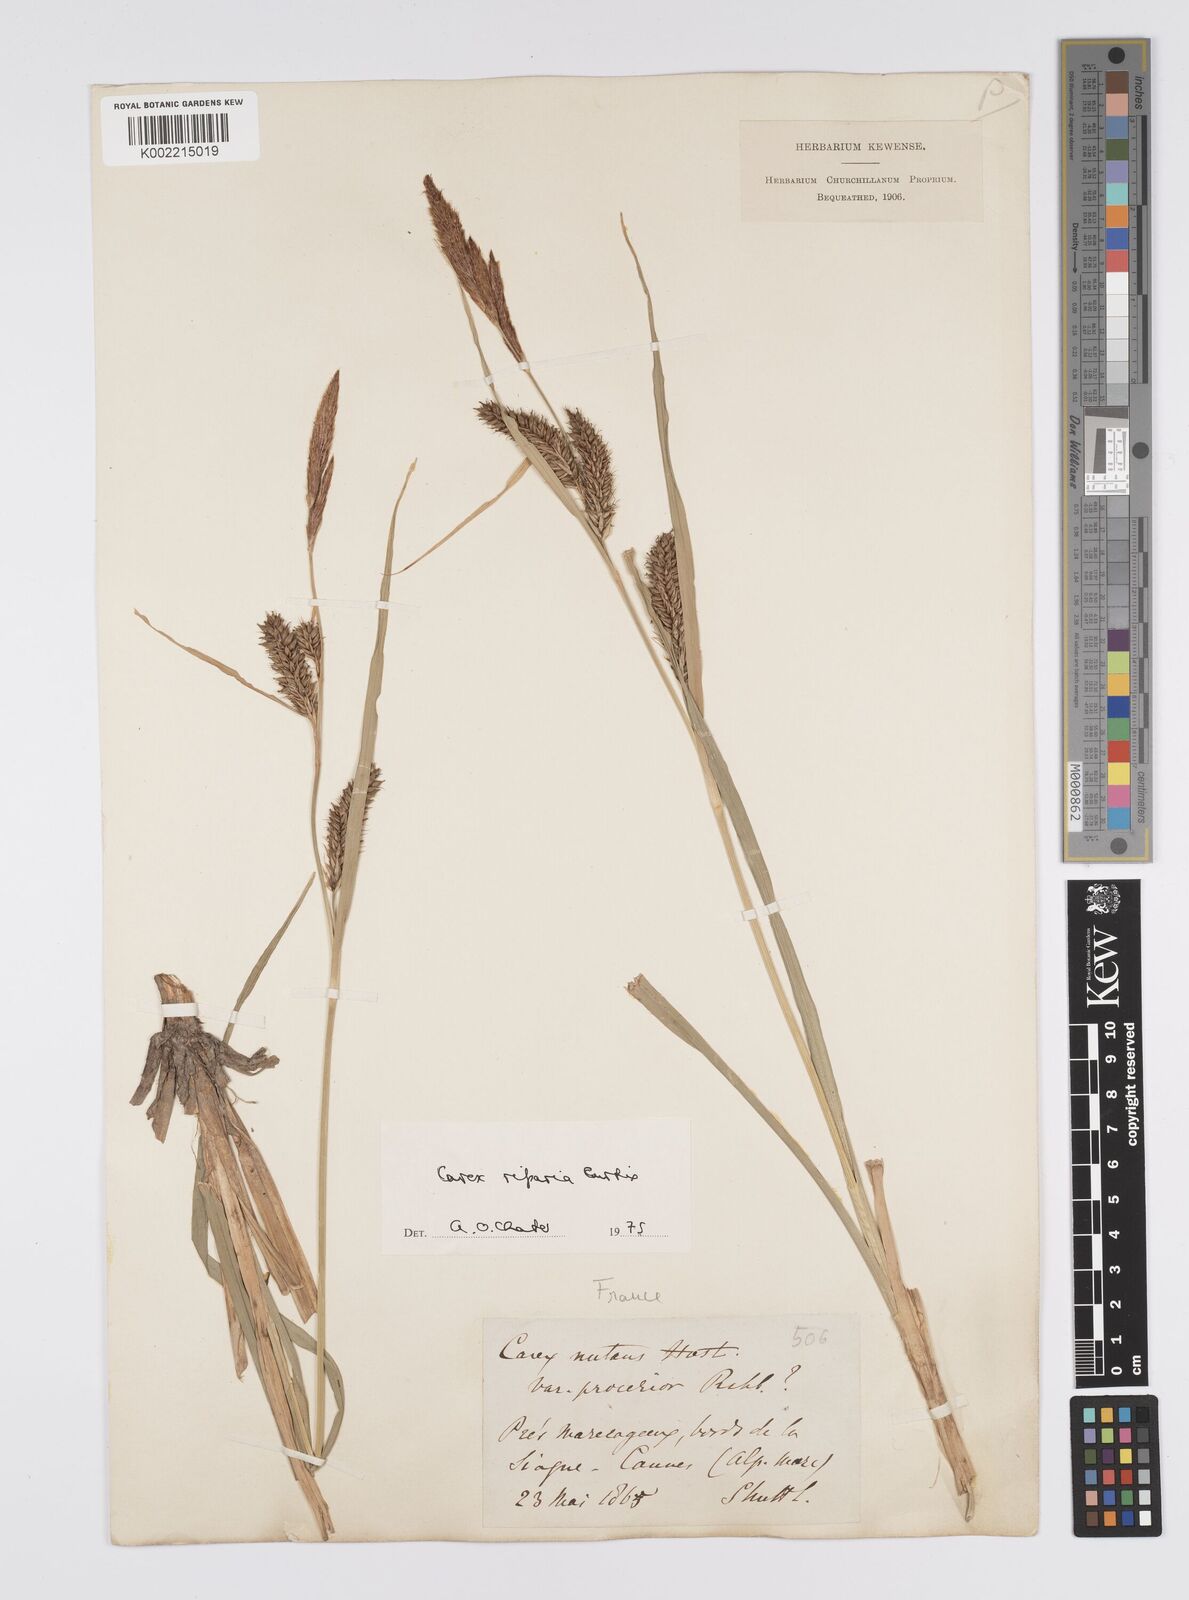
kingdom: Plantae
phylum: Tracheophyta
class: Liliopsida
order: Poales
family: Cyperaceae
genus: Carex
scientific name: Carex riparia
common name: Greater pond-sedge
